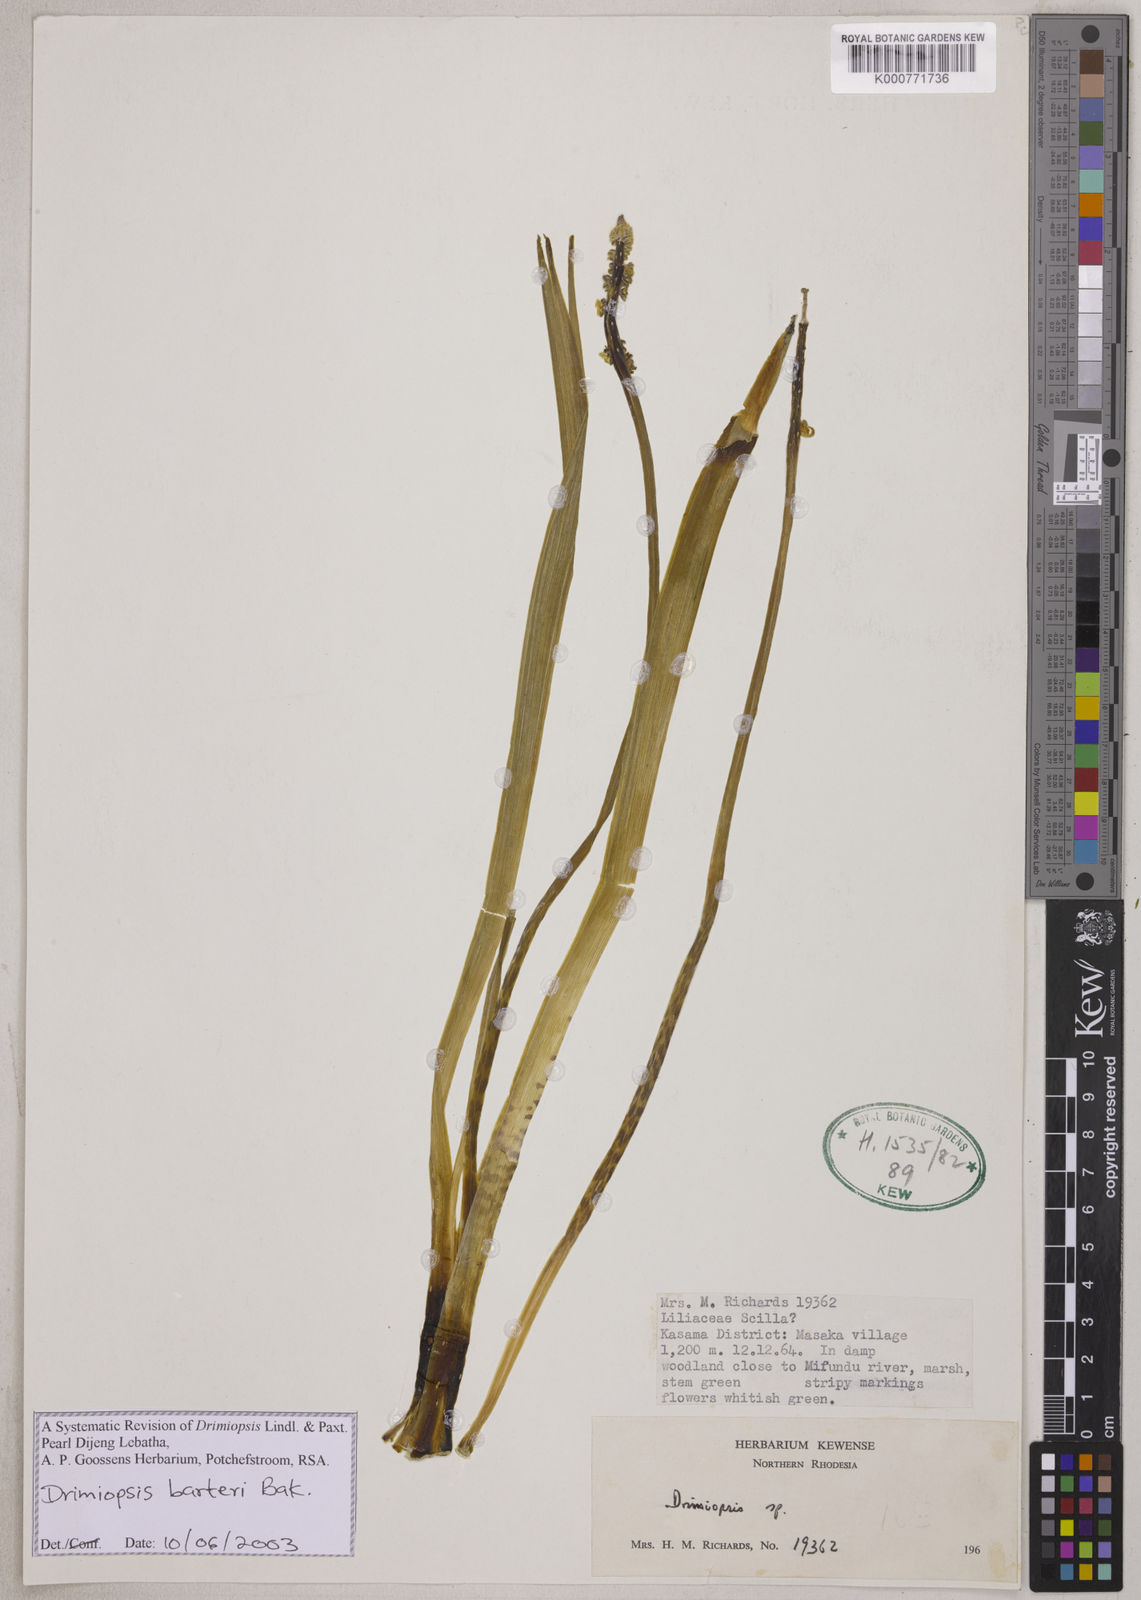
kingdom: Plantae
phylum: Tracheophyta
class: Liliopsida
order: Asparagales
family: Asparagaceae
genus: Drimiopsis
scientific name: Drimiopsis maculata
